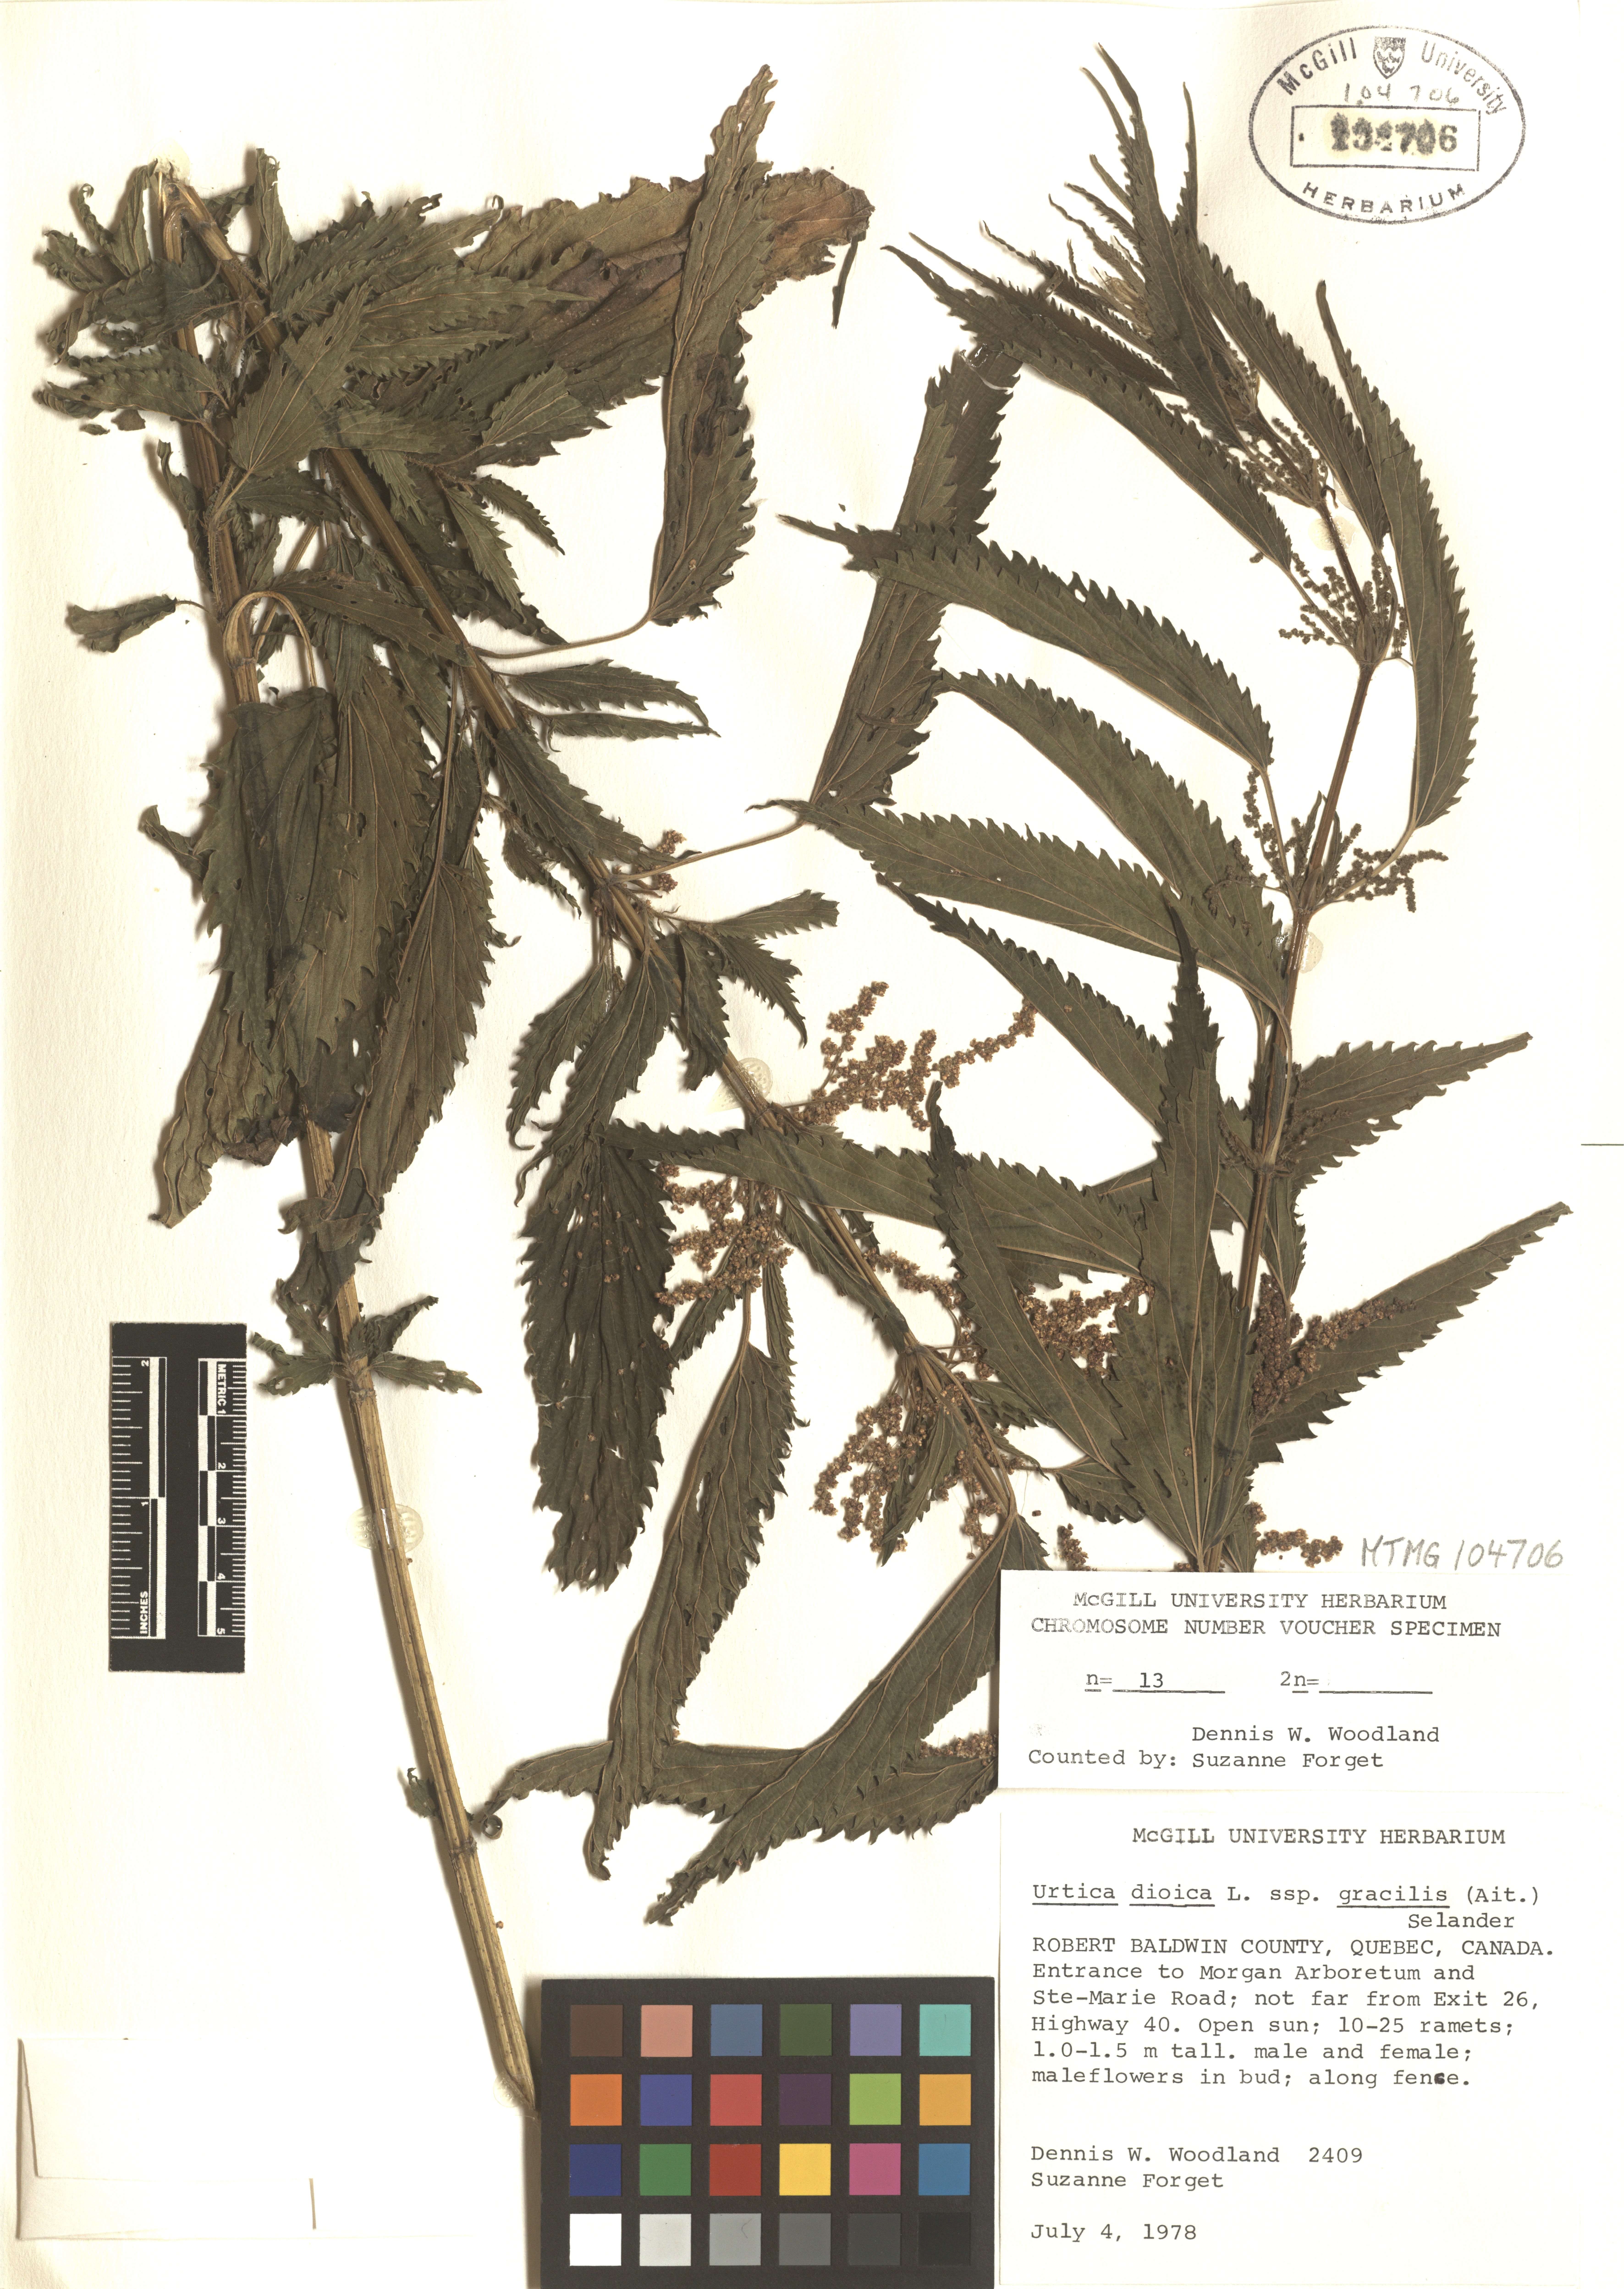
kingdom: Plantae
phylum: Tracheophyta
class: Magnoliopsida
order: Rosales
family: Urticaceae
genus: Urtica
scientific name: Urtica gracilis
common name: Slender stinging nettle
